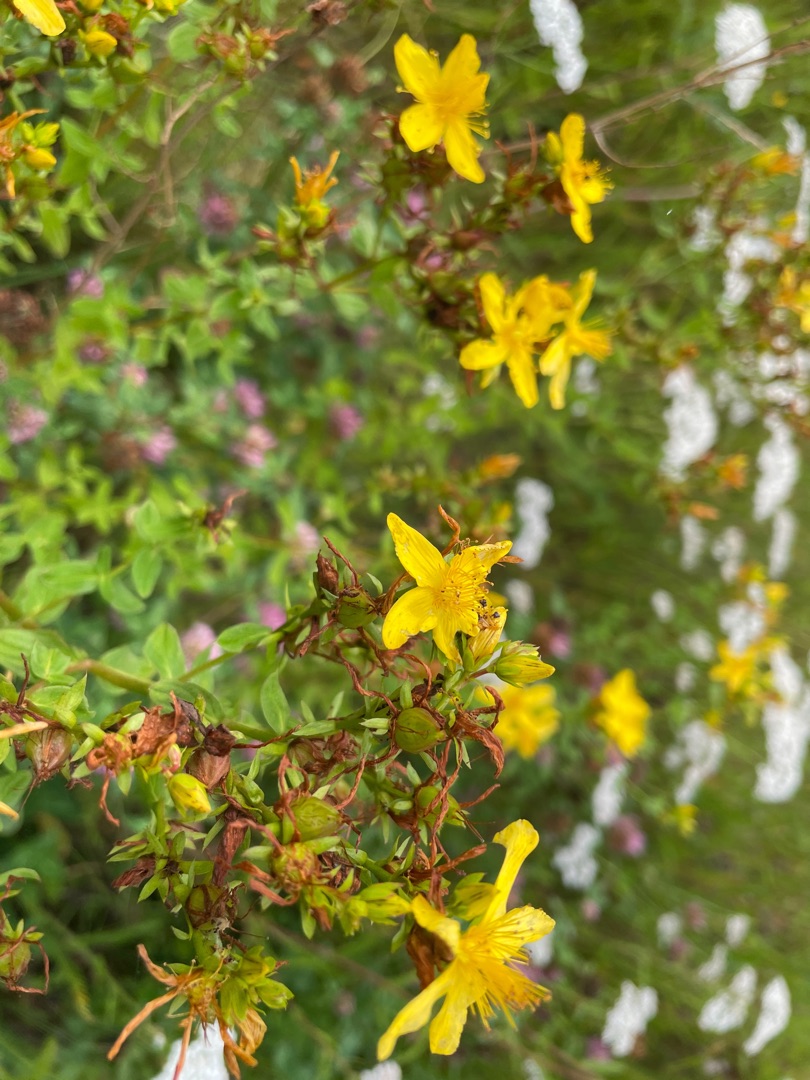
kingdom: Plantae
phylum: Tracheophyta
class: Magnoliopsida
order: Malpighiales
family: Hypericaceae
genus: Hypericum
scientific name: Hypericum perforatum
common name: Prikbladet perikon
